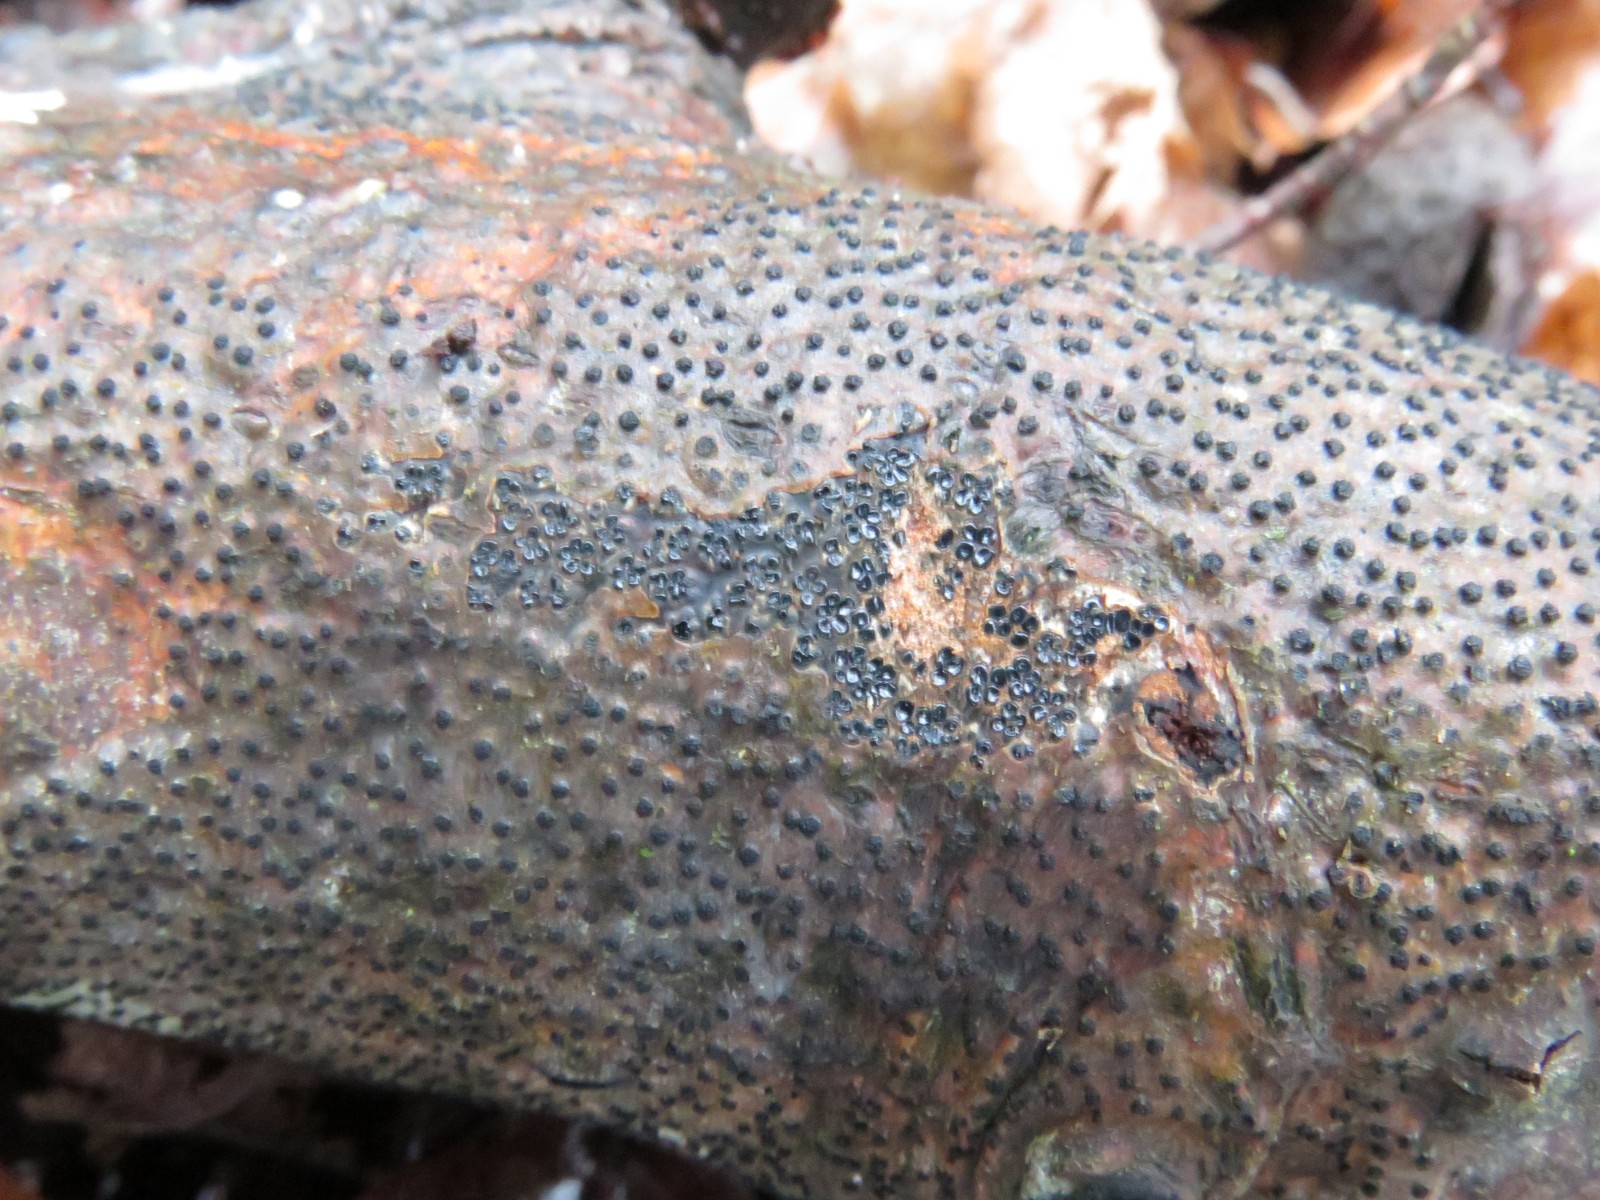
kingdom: Fungi
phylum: Ascomycota
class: Sordariomycetes
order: Xylariales
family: Diatrypaceae
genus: Eutypella
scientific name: Eutypella quaternata
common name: bøge-korsprik
